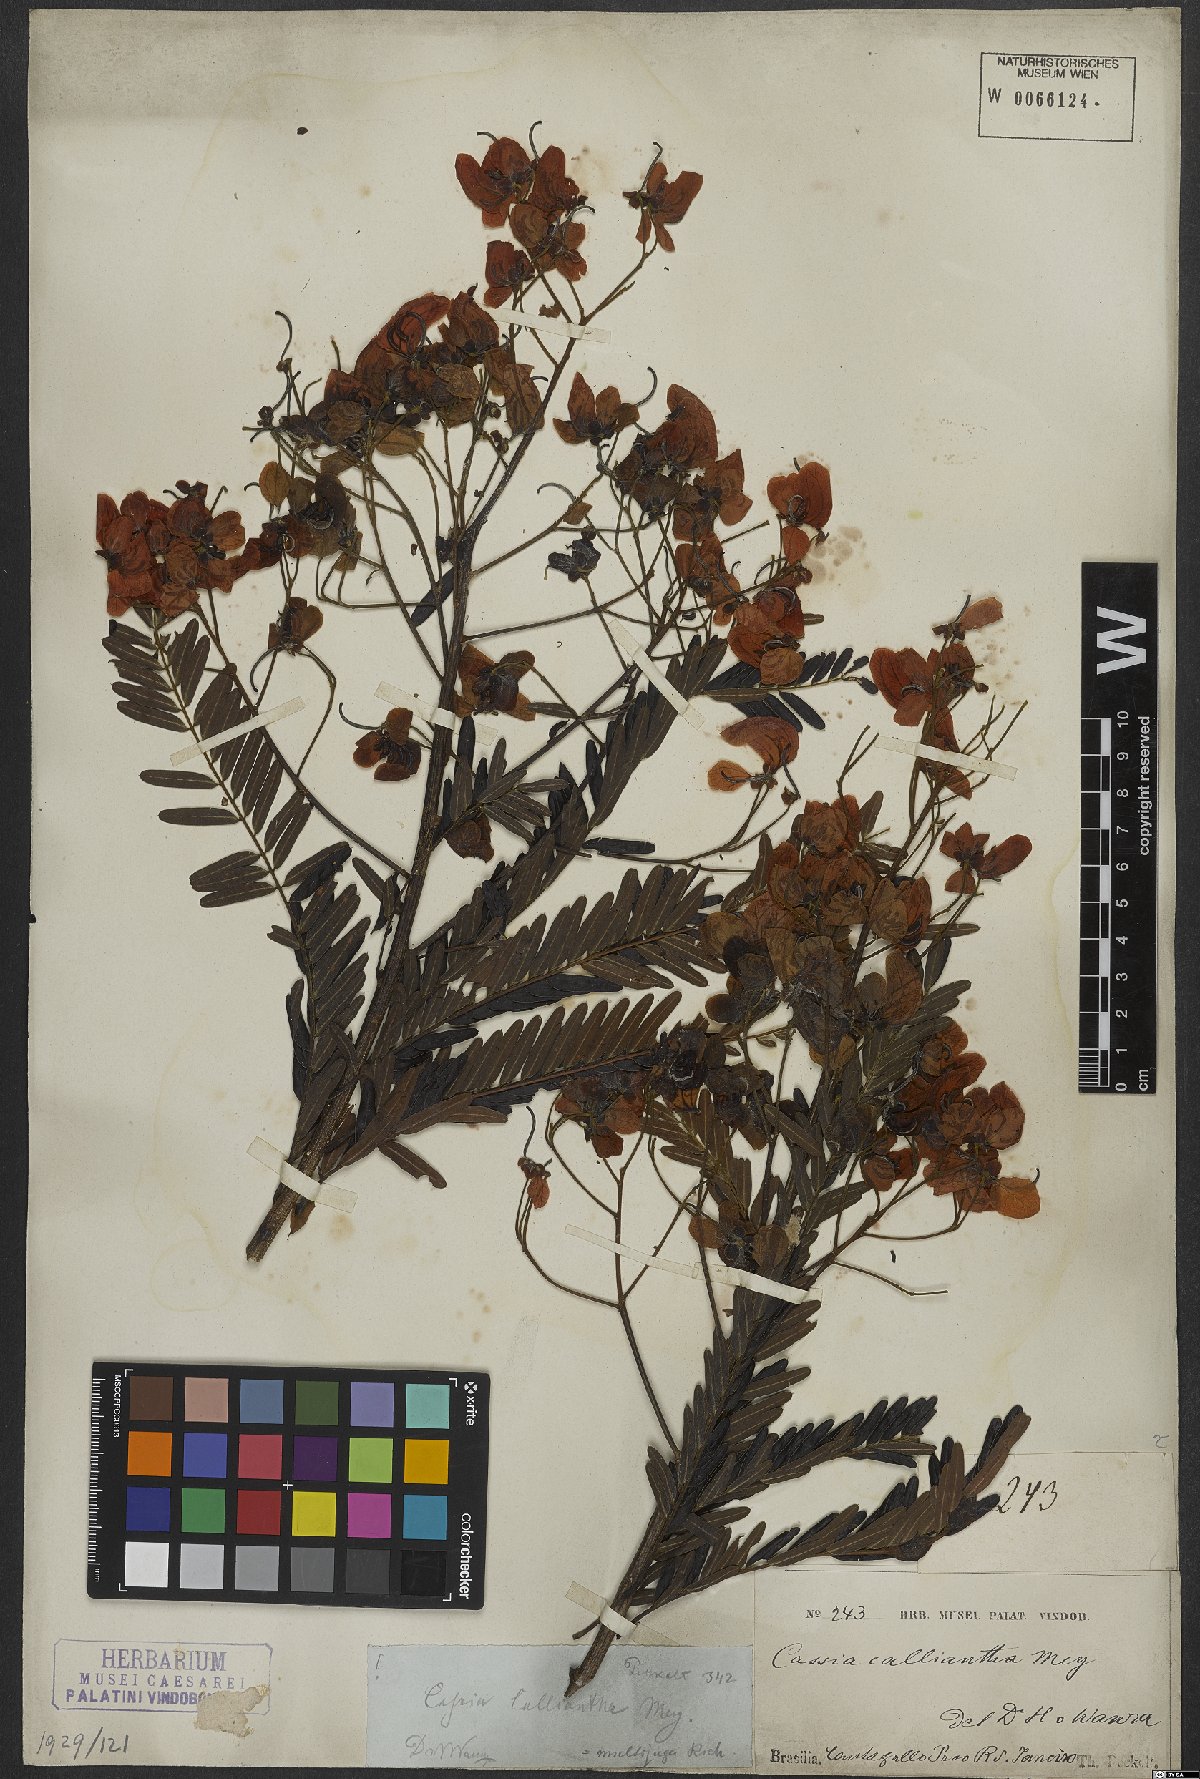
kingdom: Plantae
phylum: Tracheophyta
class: Magnoliopsida
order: Fabales
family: Fabaceae
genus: Senna
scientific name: Senna multijuga
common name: False sicklepod
